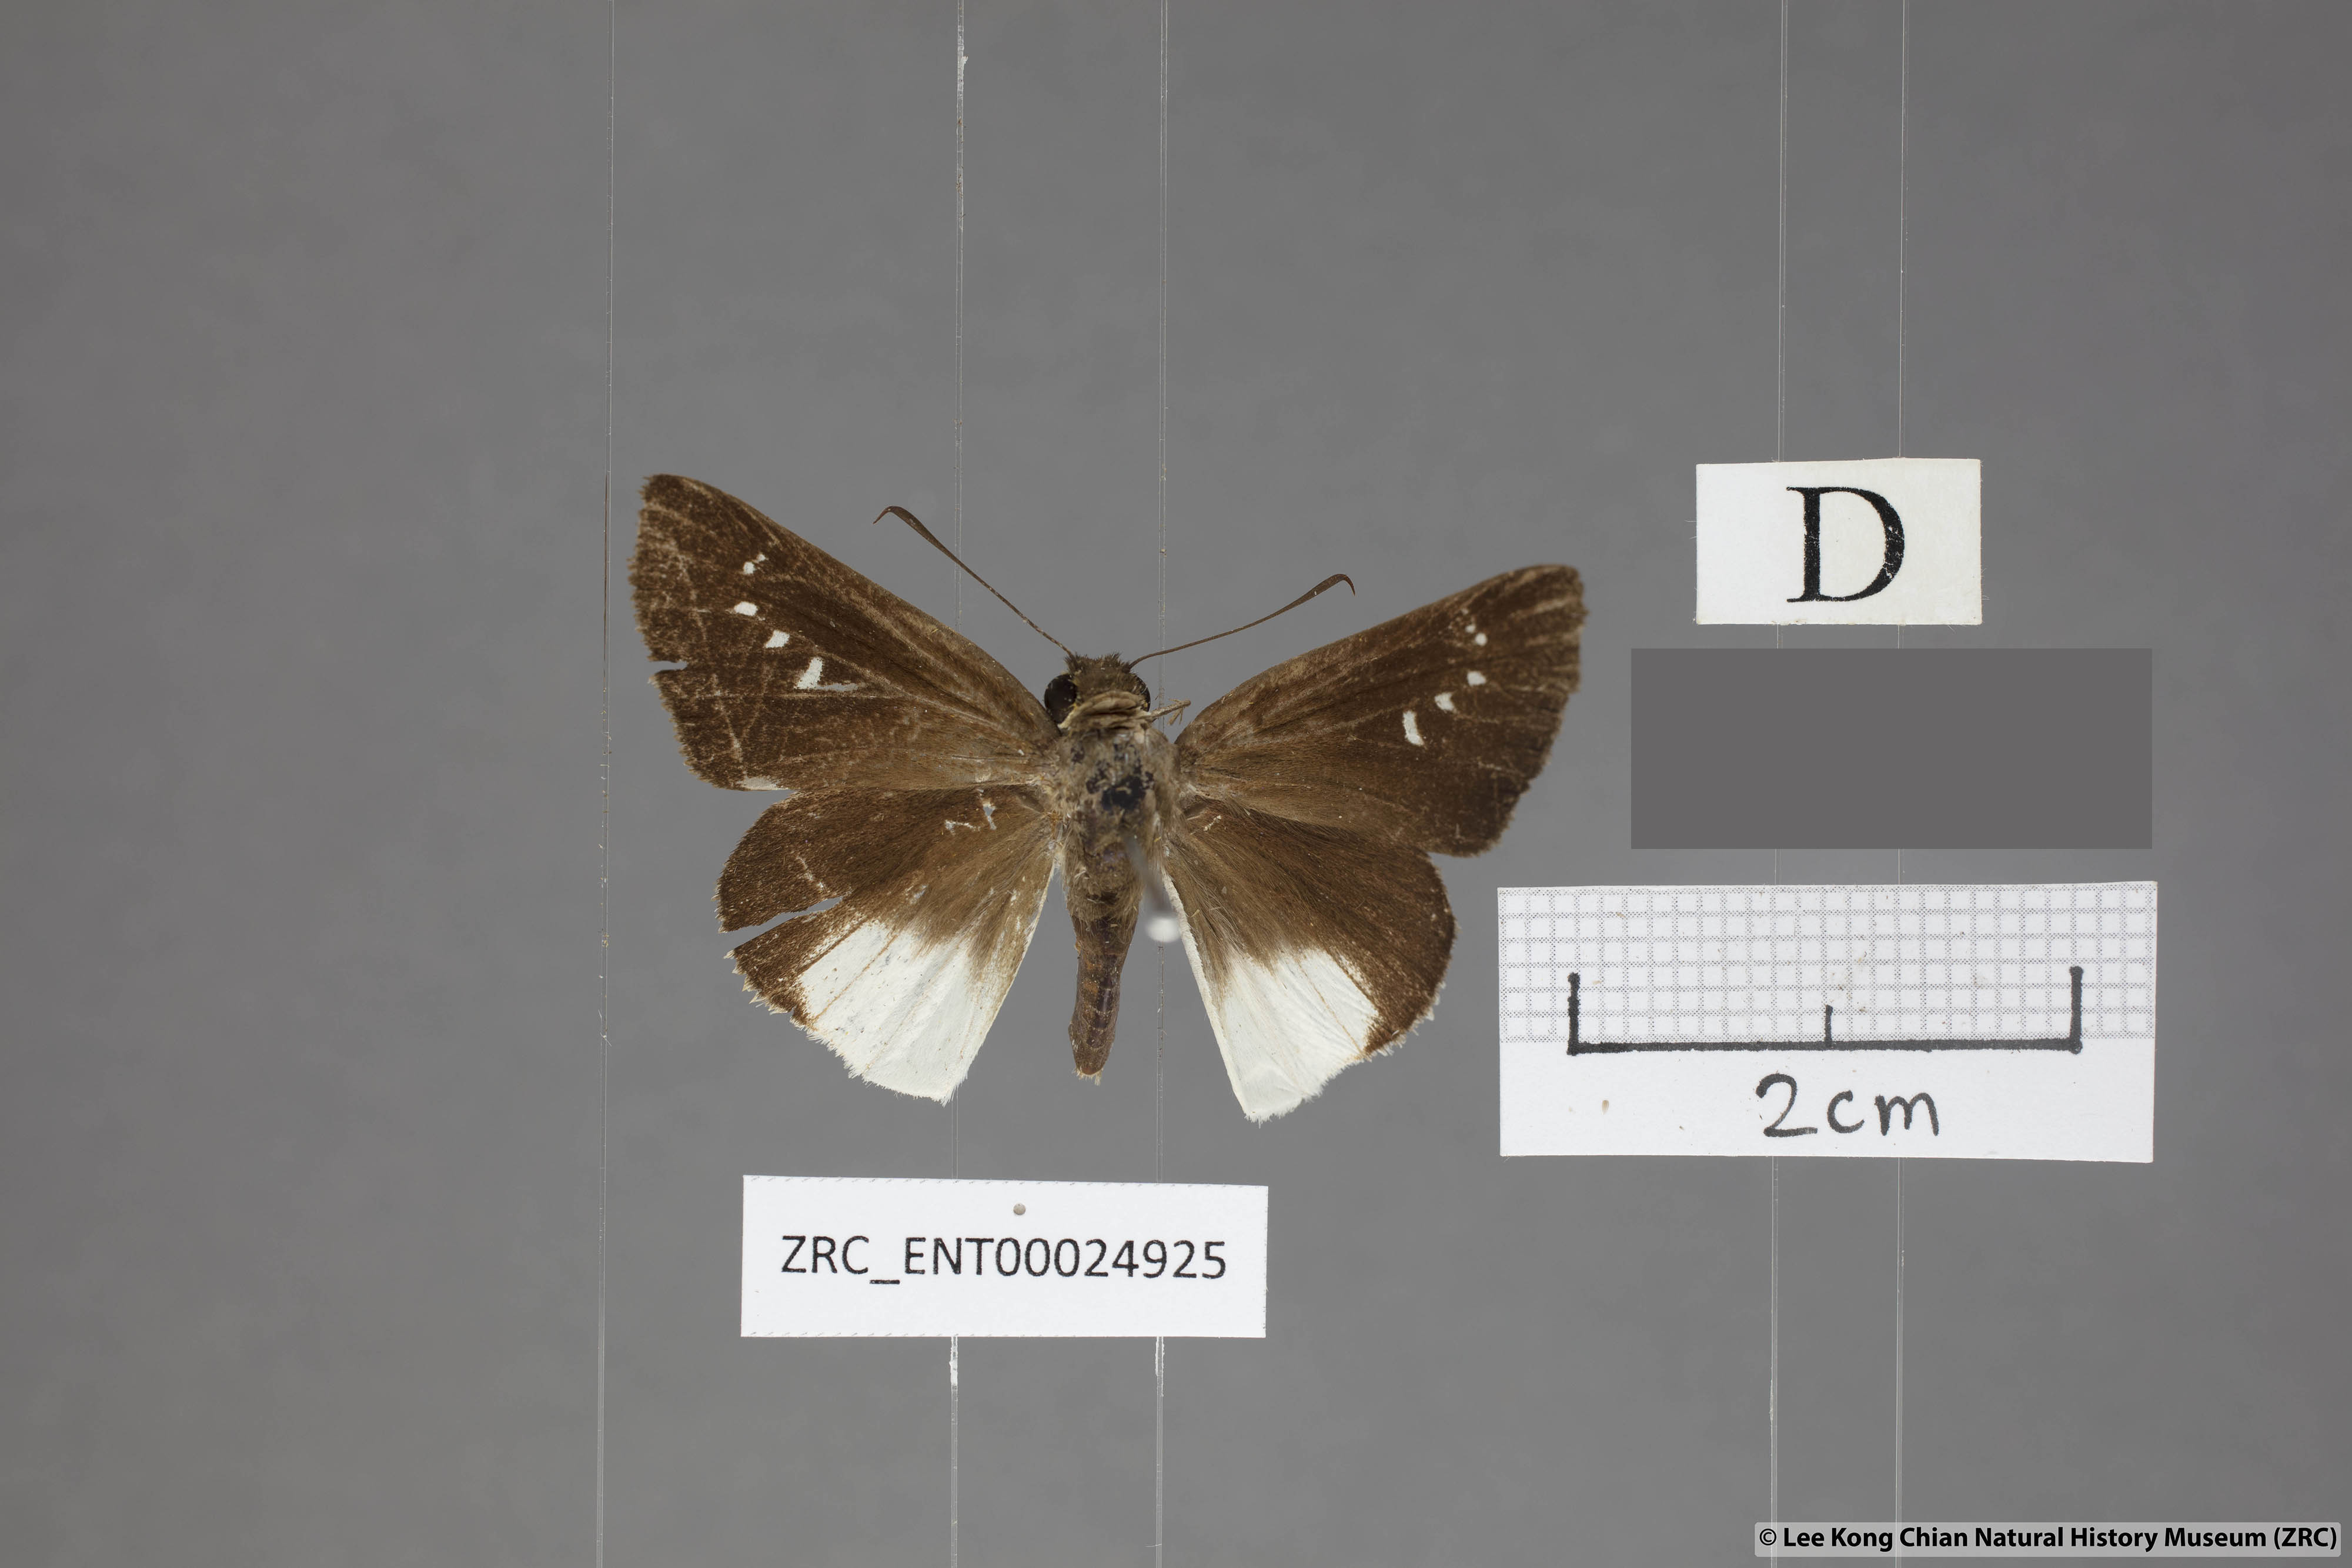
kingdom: Animalia
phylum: Arthropoda
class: Insecta
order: Lepidoptera
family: Hesperiidae
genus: Iton
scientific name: Iton semamora
